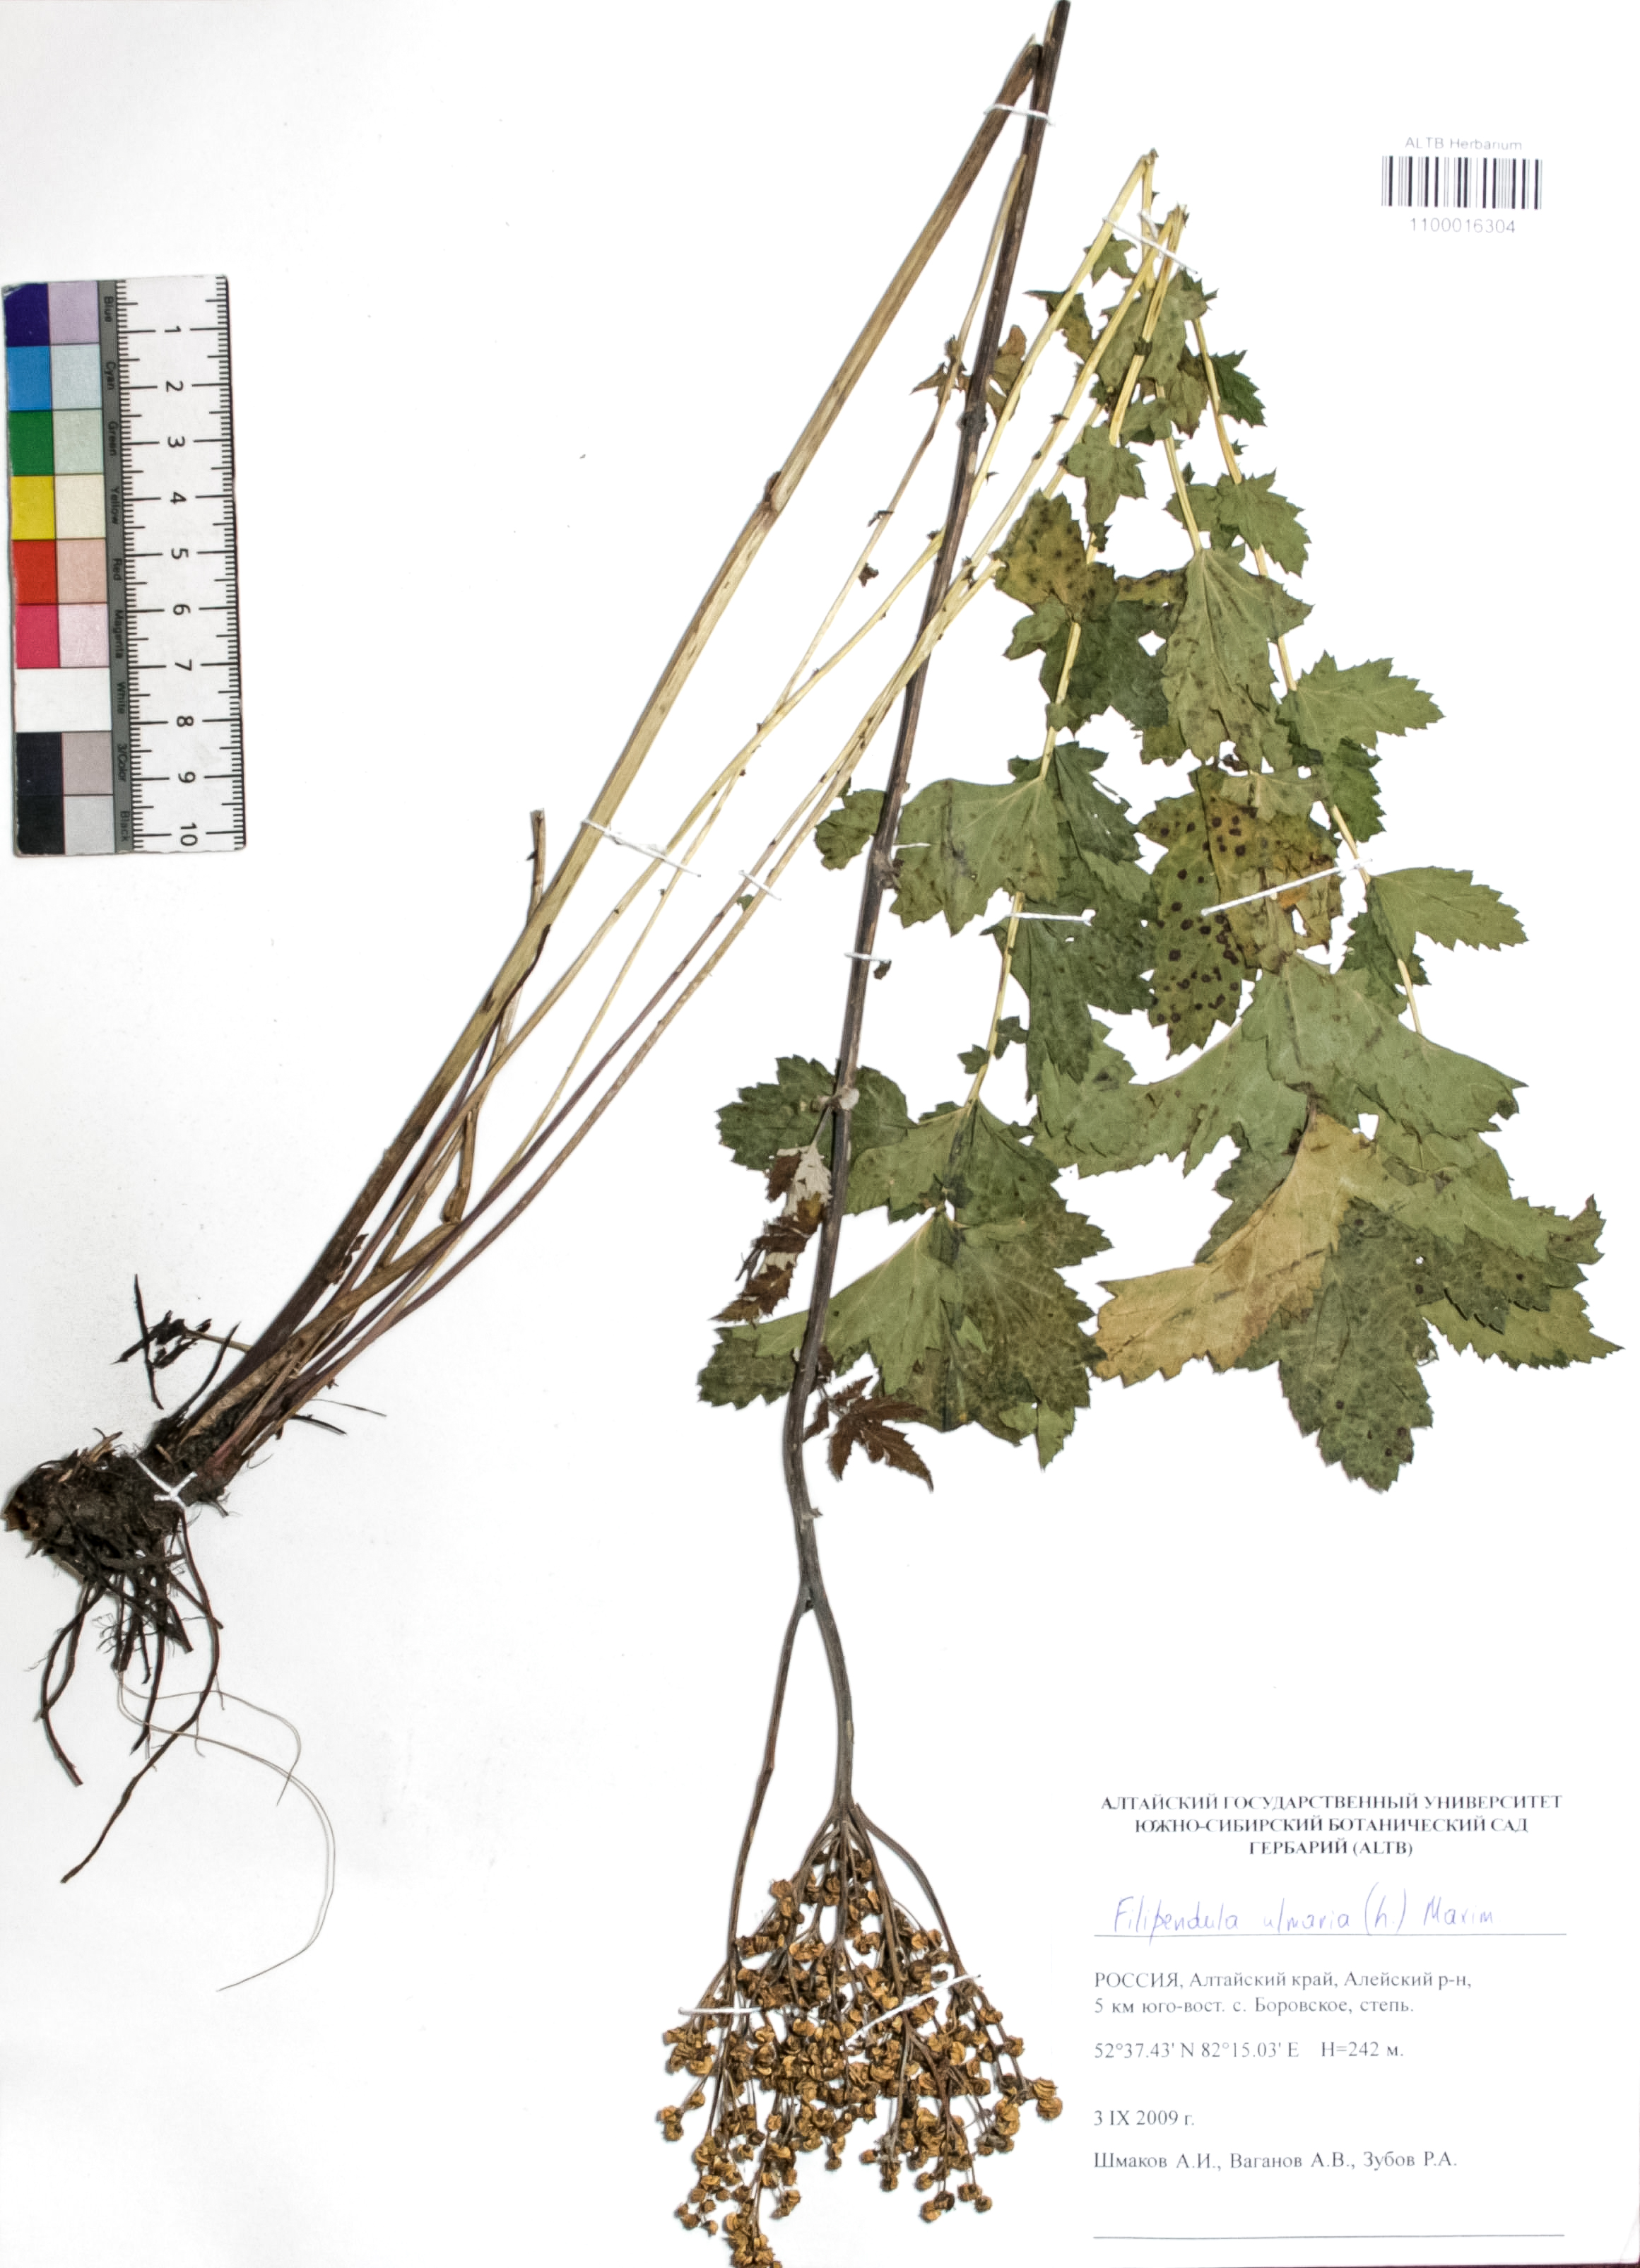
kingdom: Plantae
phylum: Tracheophyta
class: Magnoliopsida
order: Rosales
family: Rosaceae
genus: Filipendula
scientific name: Filipendula ulmaria
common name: Meadowsweet
